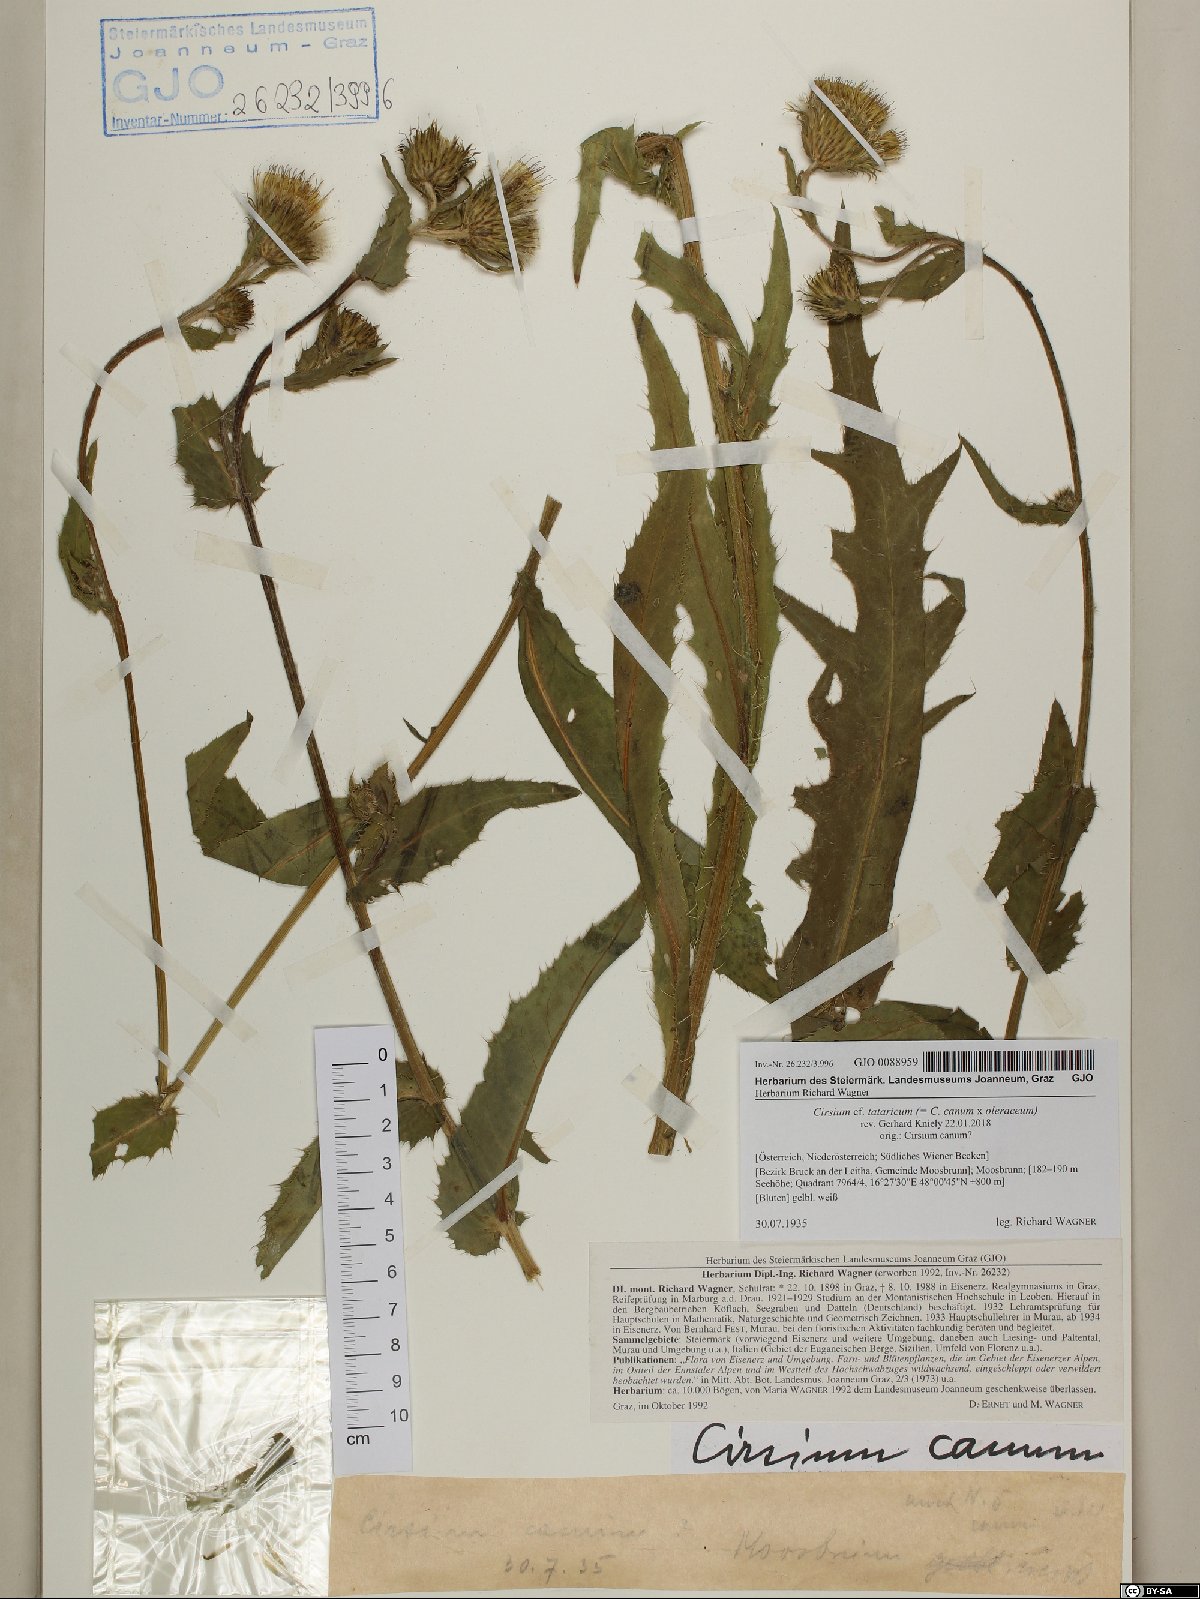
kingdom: Plantae
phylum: Tracheophyta
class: Magnoliopsida
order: Asterales
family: Asteraceae
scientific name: Asteraceae
